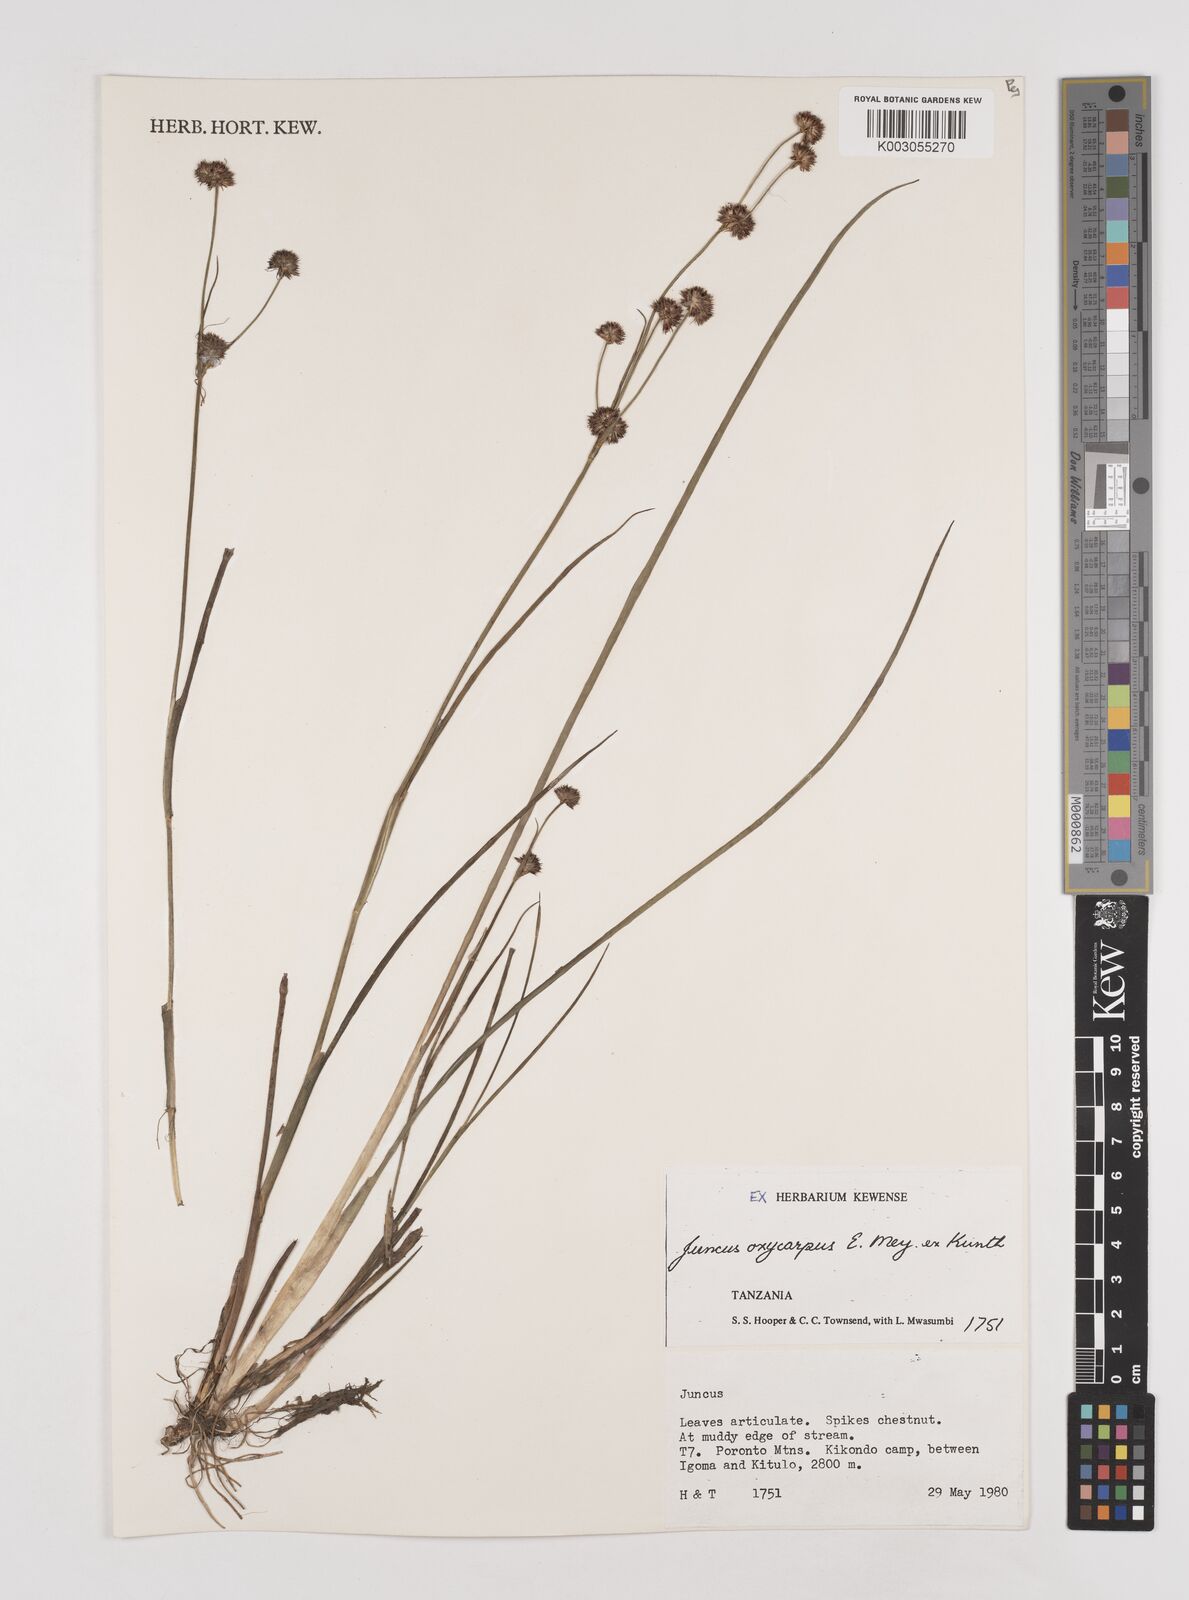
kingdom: Plantae
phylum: Tracheophyta
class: Liliopsida
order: Poales
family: Juncaceae
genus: Juncus
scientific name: Juncus oxycarpus
